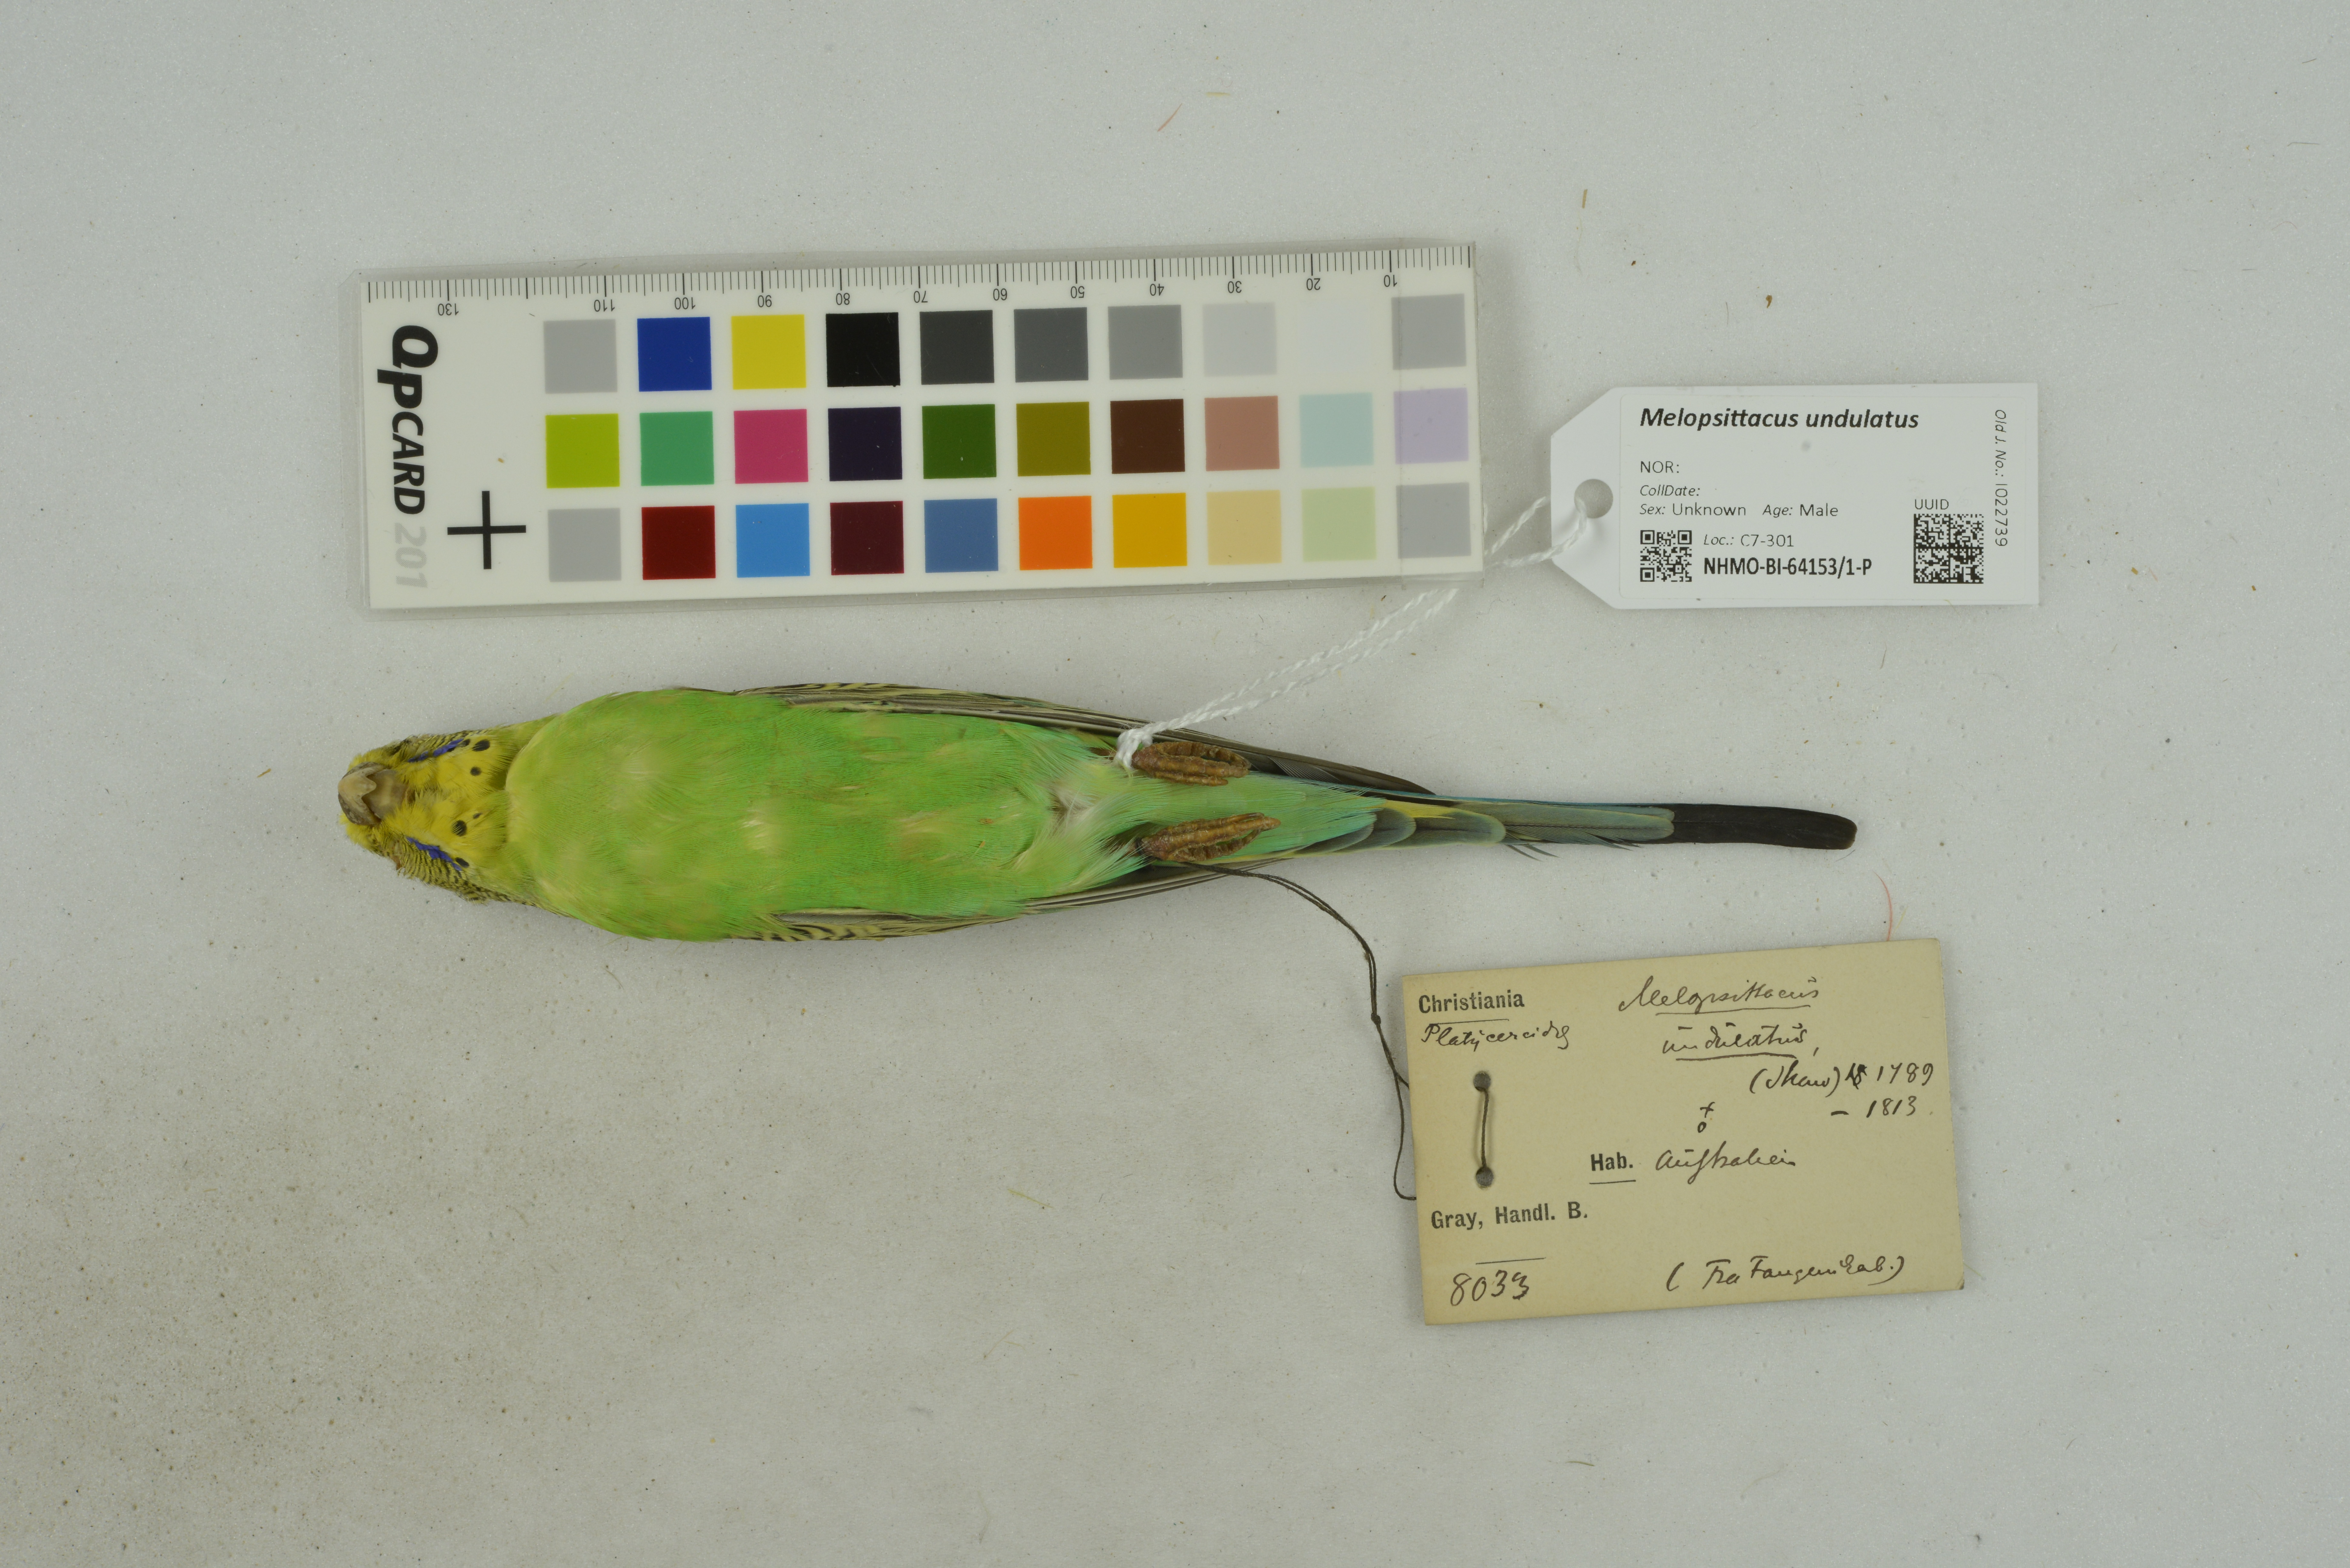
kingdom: Animalia
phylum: Chordata
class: Aves
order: Psittaciformes
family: Psittacidae
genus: Melopsittacus
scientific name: Melopsittacus undulatus
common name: Budgerigar
